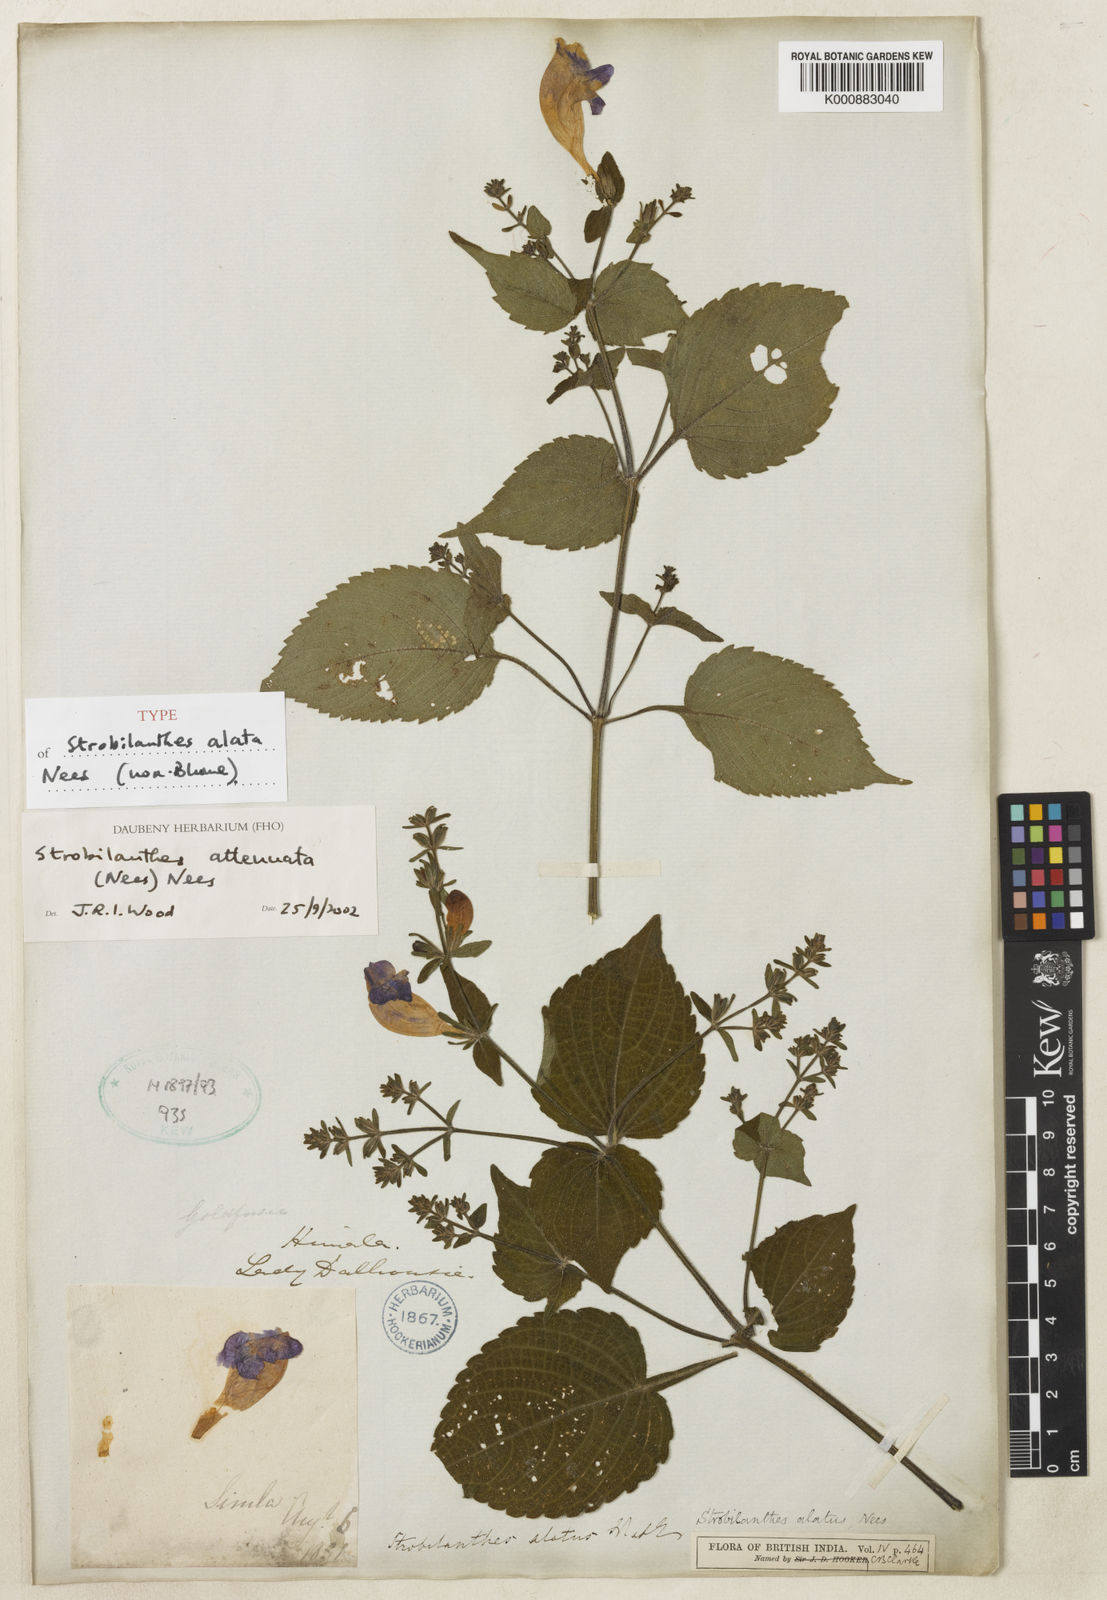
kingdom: Plantae
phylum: Tracheophyta
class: Magnoliopsida
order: Lamiales
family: Acanthaceae
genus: Strobilanthes
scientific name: Strobilanthes attenuata
